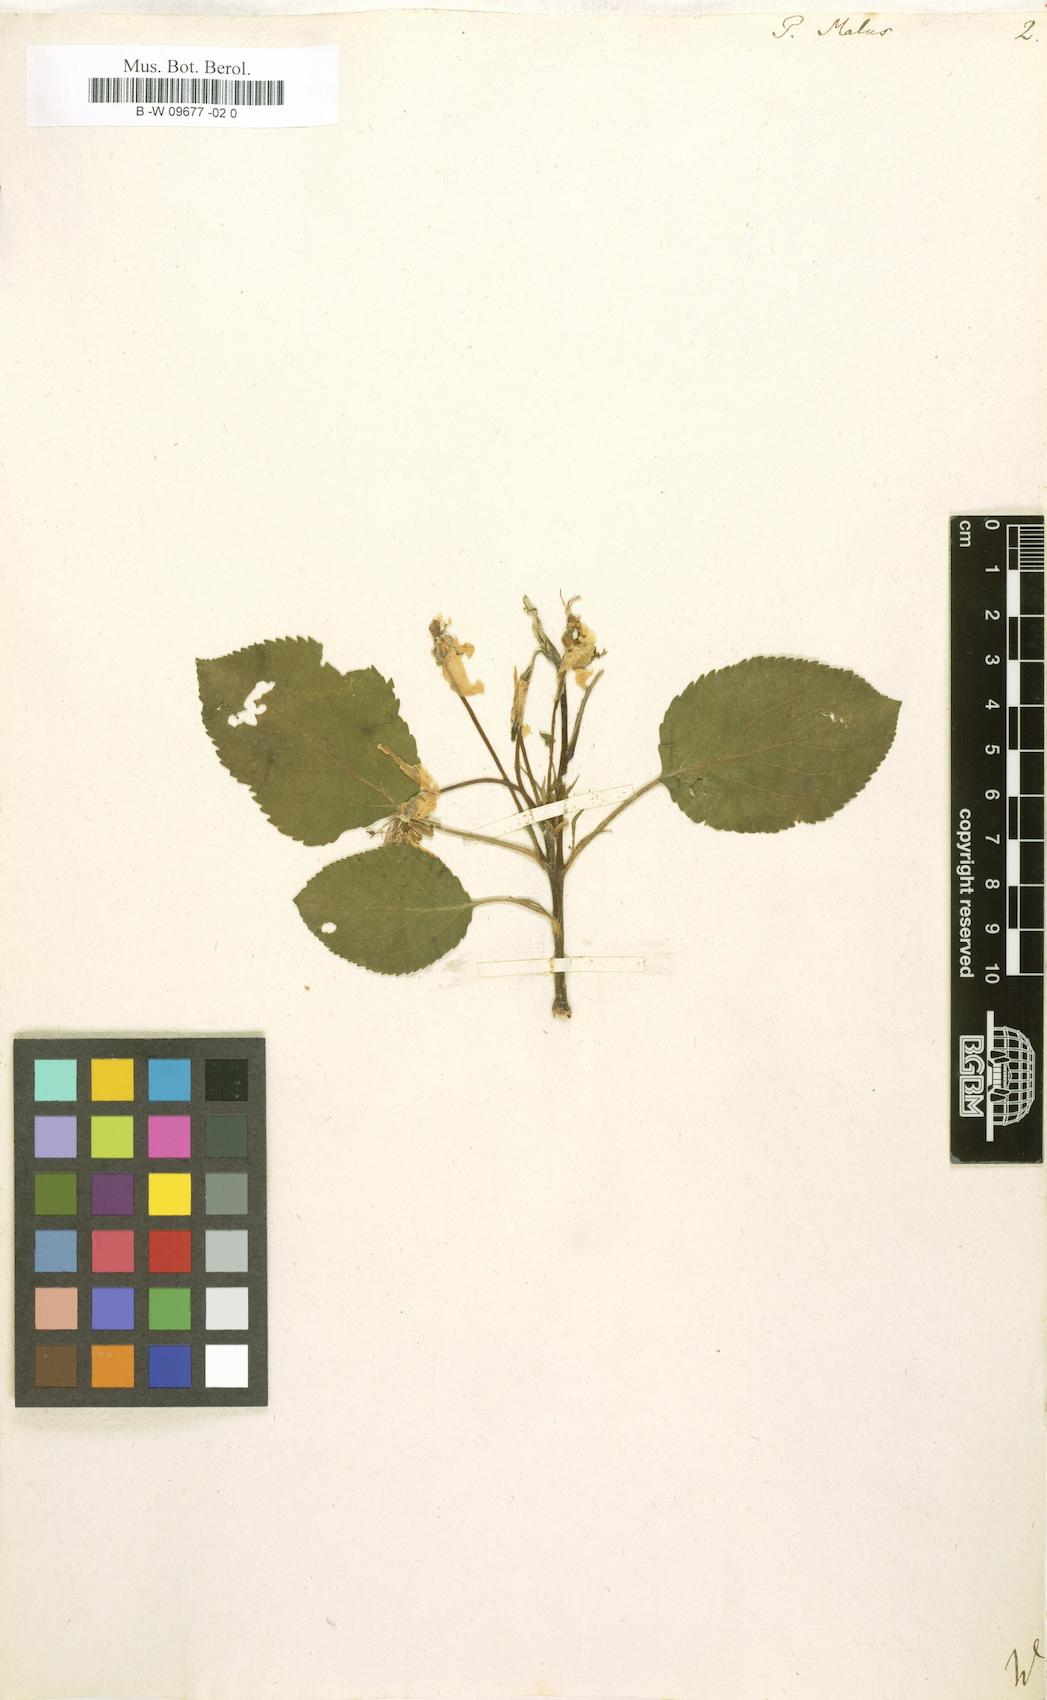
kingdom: Plantae
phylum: Tracheophyta
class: Magnoliopsida
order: Rosales
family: Rosaceae
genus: Malus
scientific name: Malus
